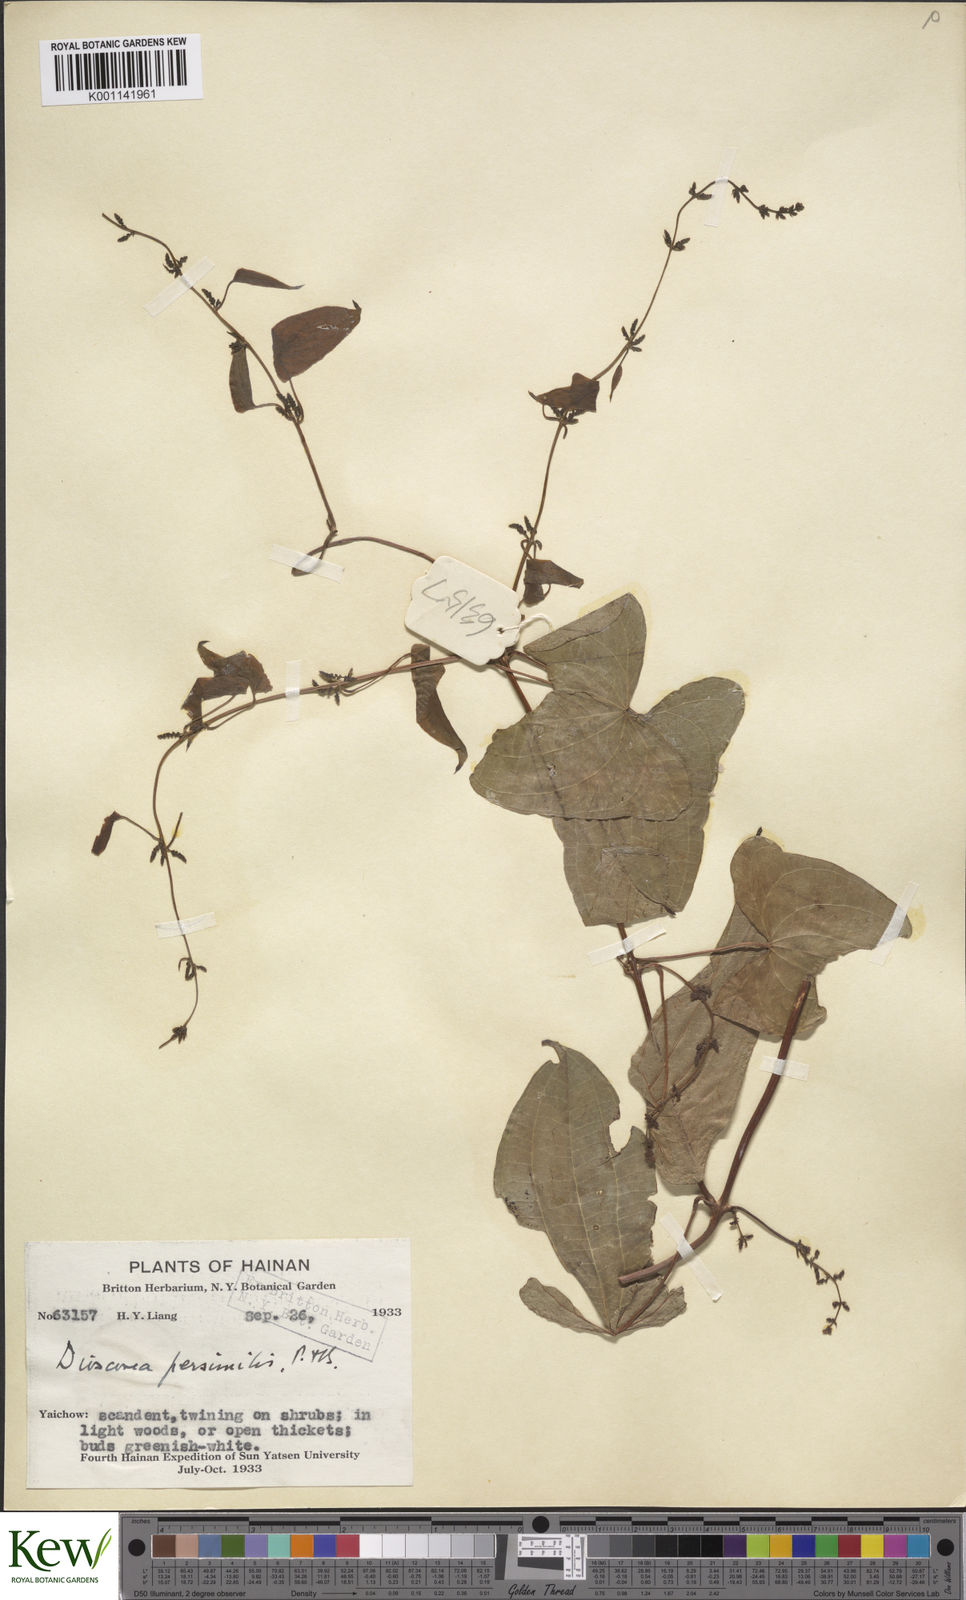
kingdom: Plantae
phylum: Tracheophyta
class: Liliopsida
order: Dioscoreales
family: Dioscoreaceae
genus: Dioscorea
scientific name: Dioscorea hamiltonii
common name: Mountain yam
